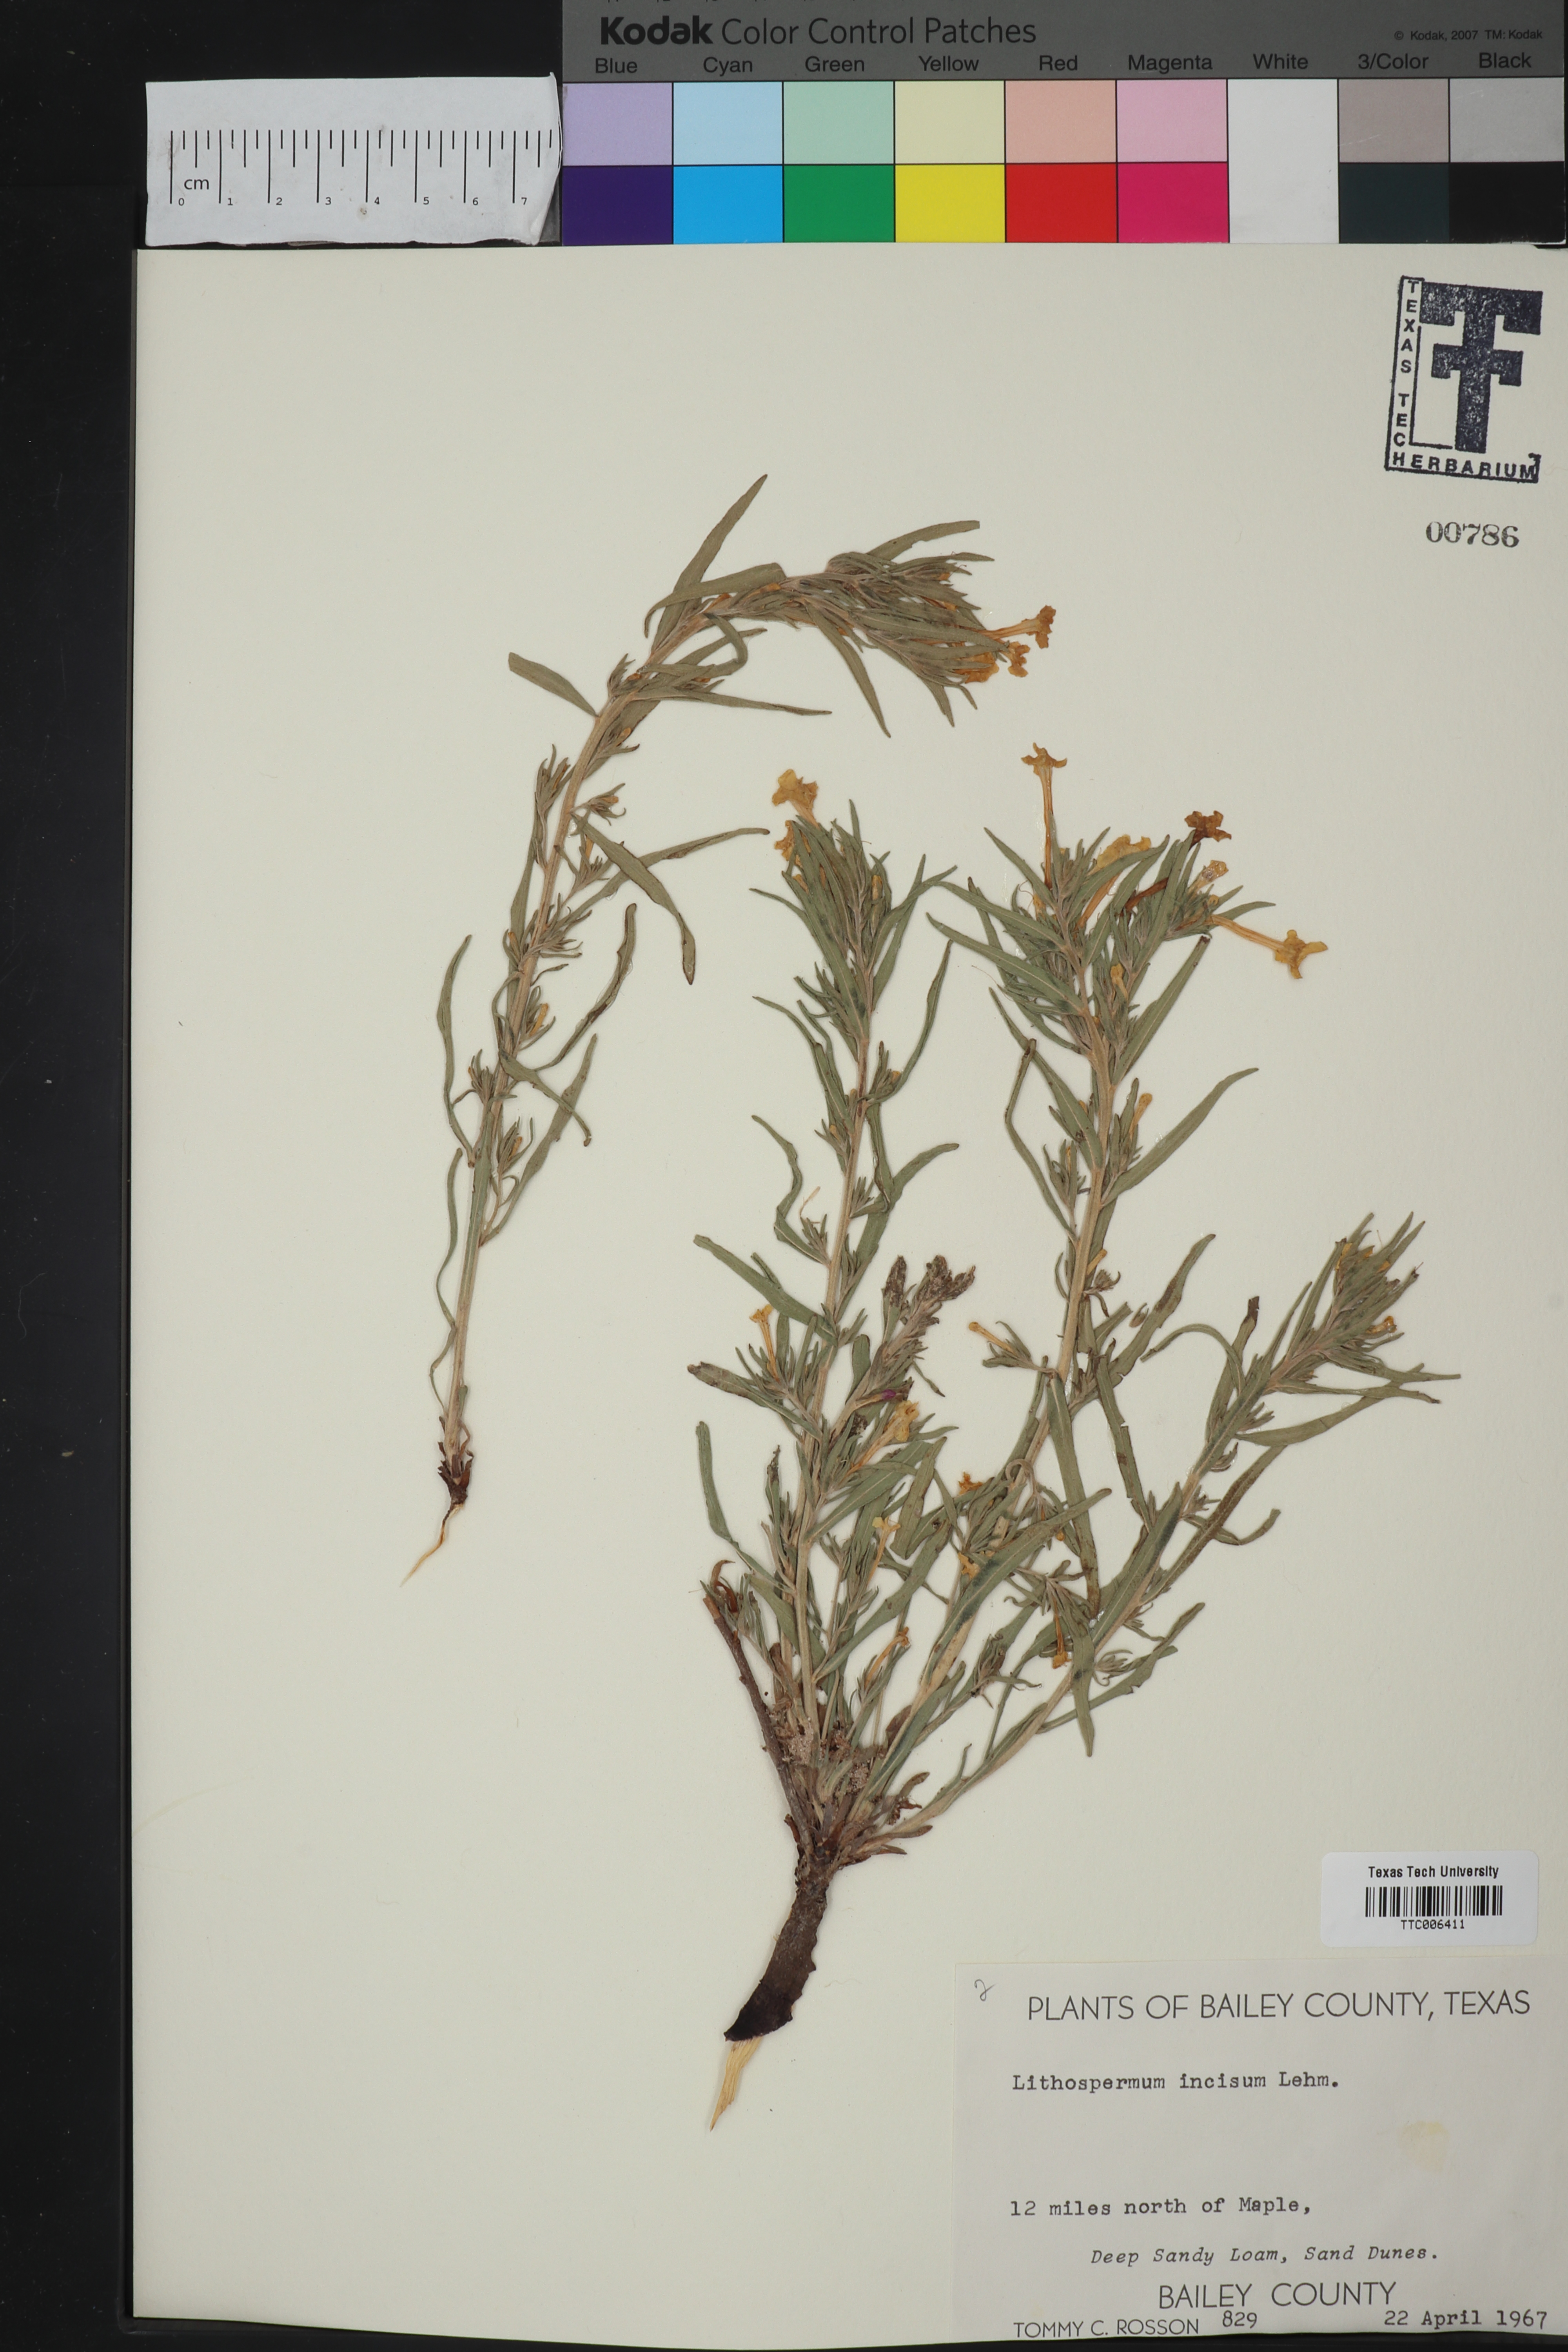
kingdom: Plantae
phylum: Tracheophyta
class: Magnoliopsida
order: Boraginales
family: Boraginaceae
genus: Lithospermum
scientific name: Lithospermum incisum
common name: Fringed gromwell
